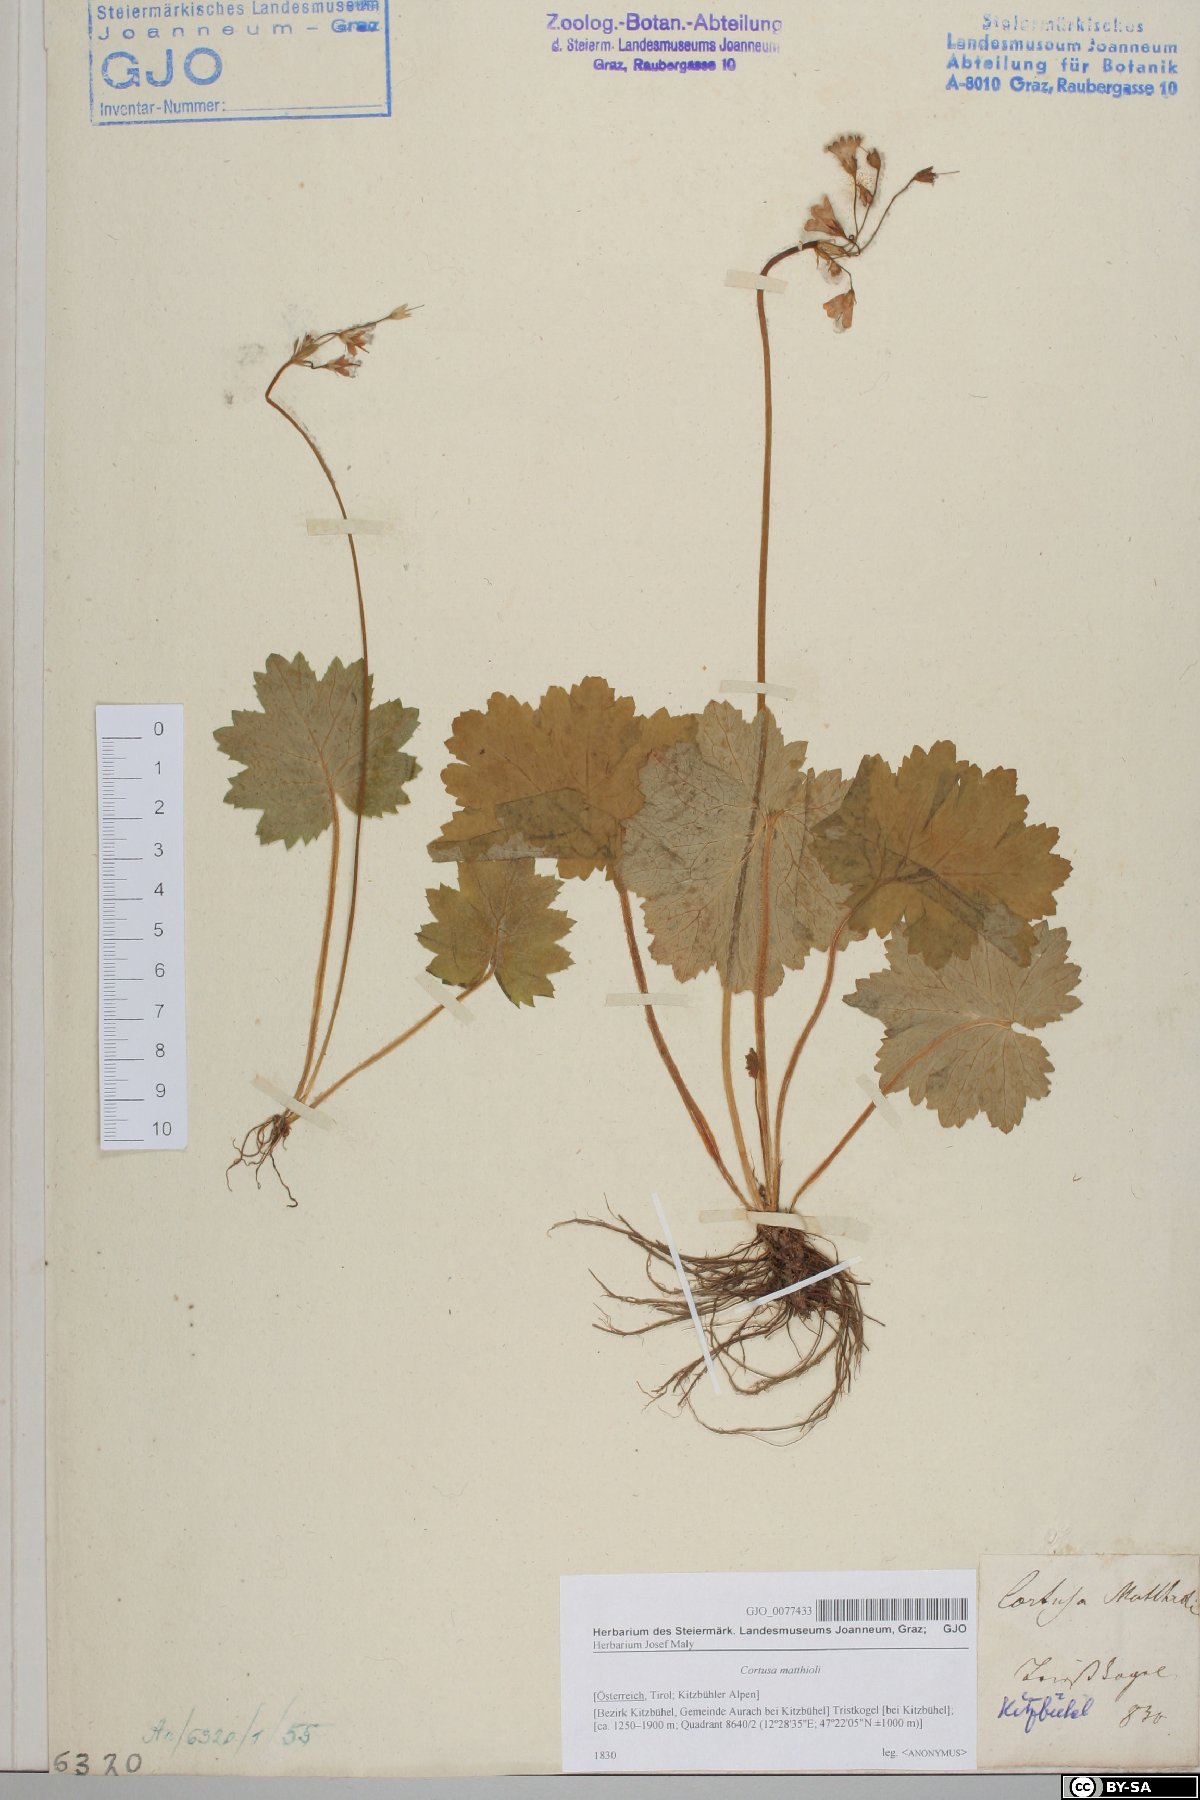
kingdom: Plantae
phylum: Tracheophyta
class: Magnoliopsida
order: Ericales
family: Primulaceae
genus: Primula
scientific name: Primula matthioli
